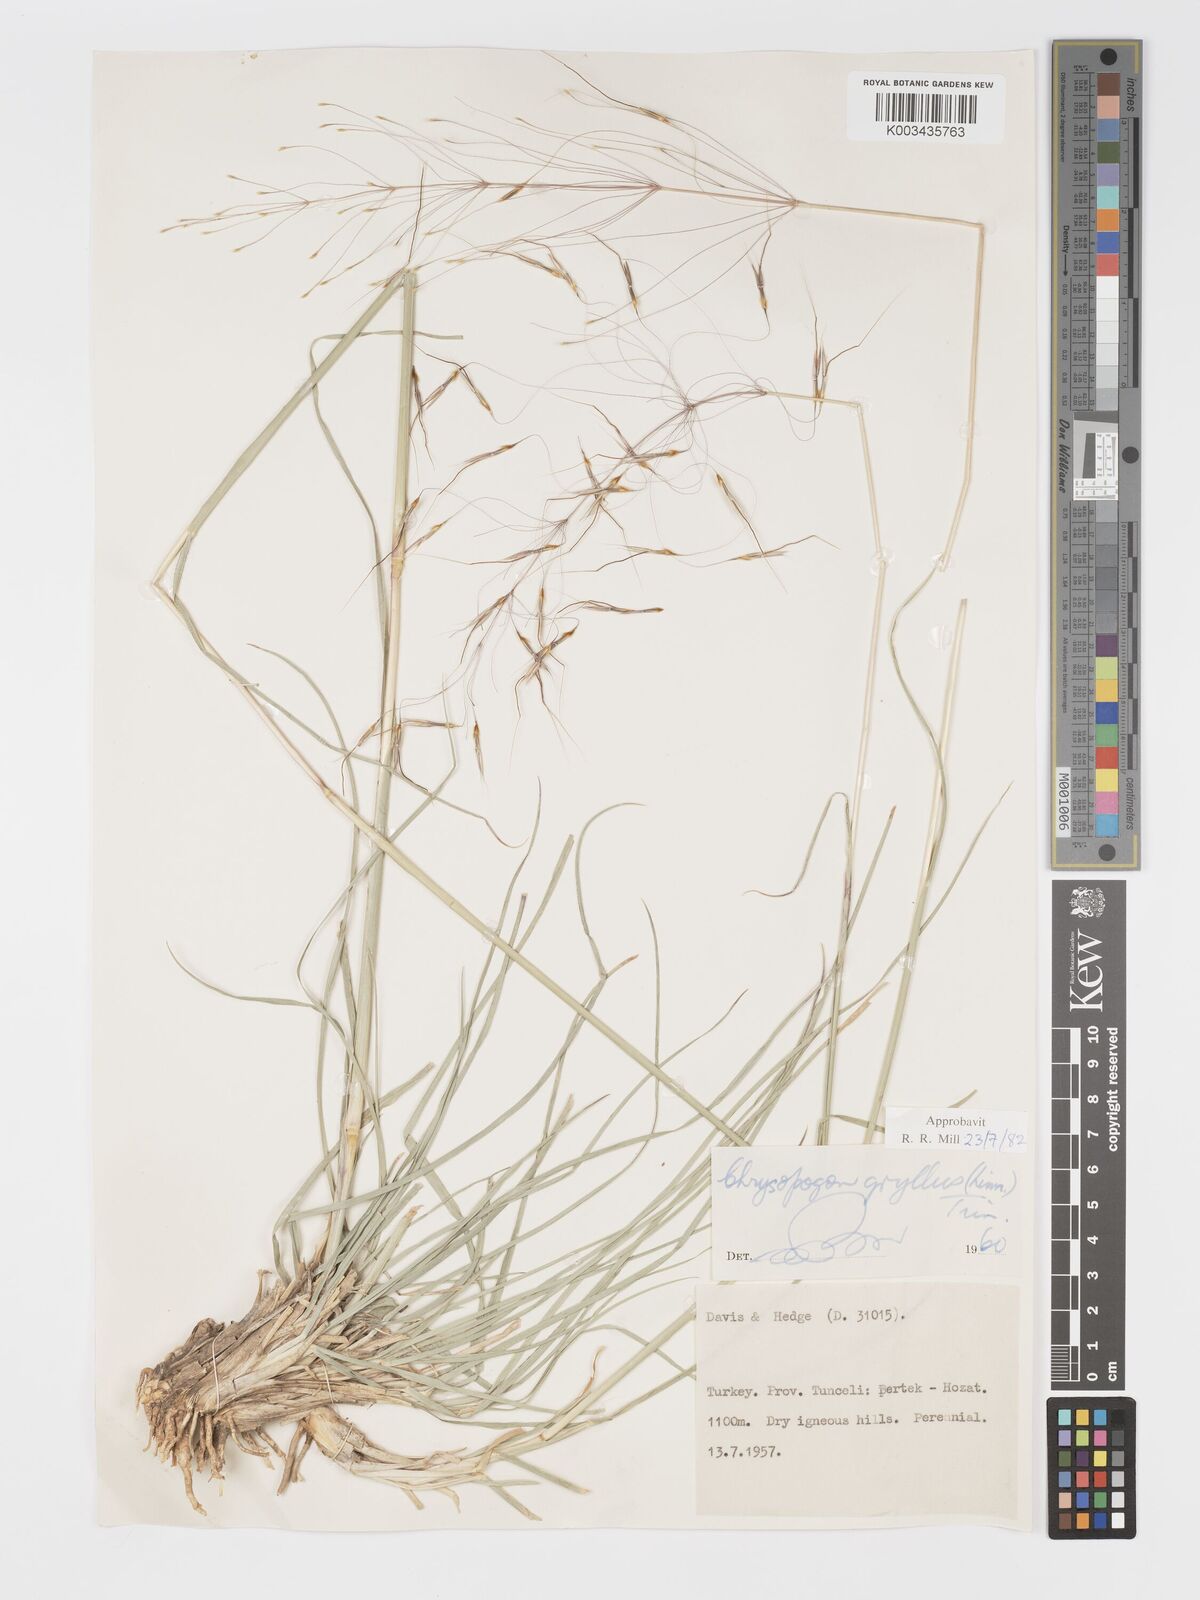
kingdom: Plantae
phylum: Tracheophyta
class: Liliopsida
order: Poales
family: Poaceae
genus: Chrysopogon
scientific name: Chrysopogon gryllus
